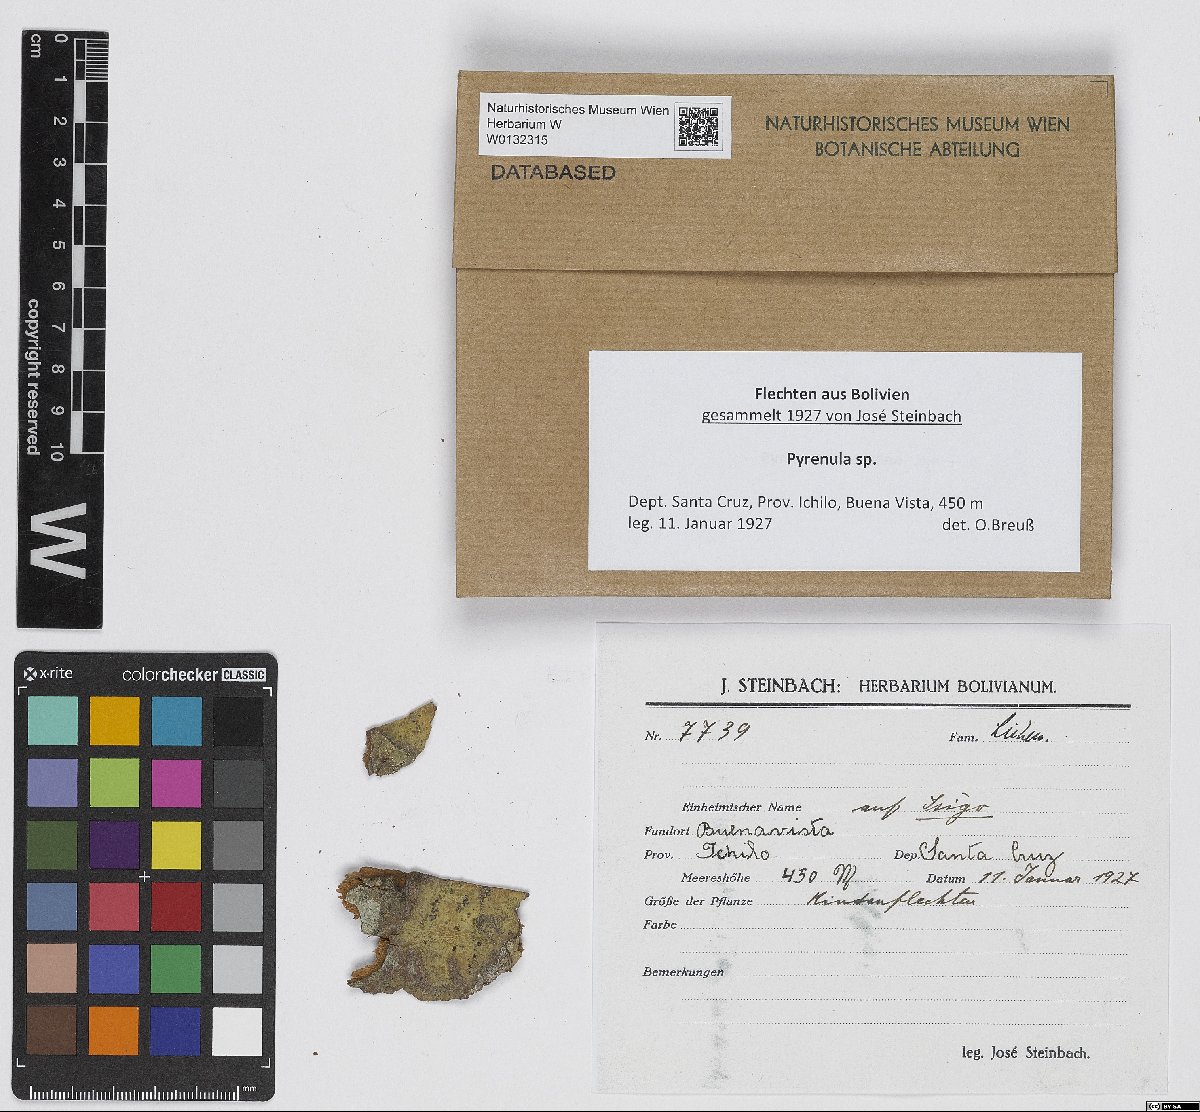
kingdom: Fungi
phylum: Ascomycota
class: Eurotiomycetes
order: Pyrenulales
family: Pyrenulaceae
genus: Pyrenula
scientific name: Pyrenula
